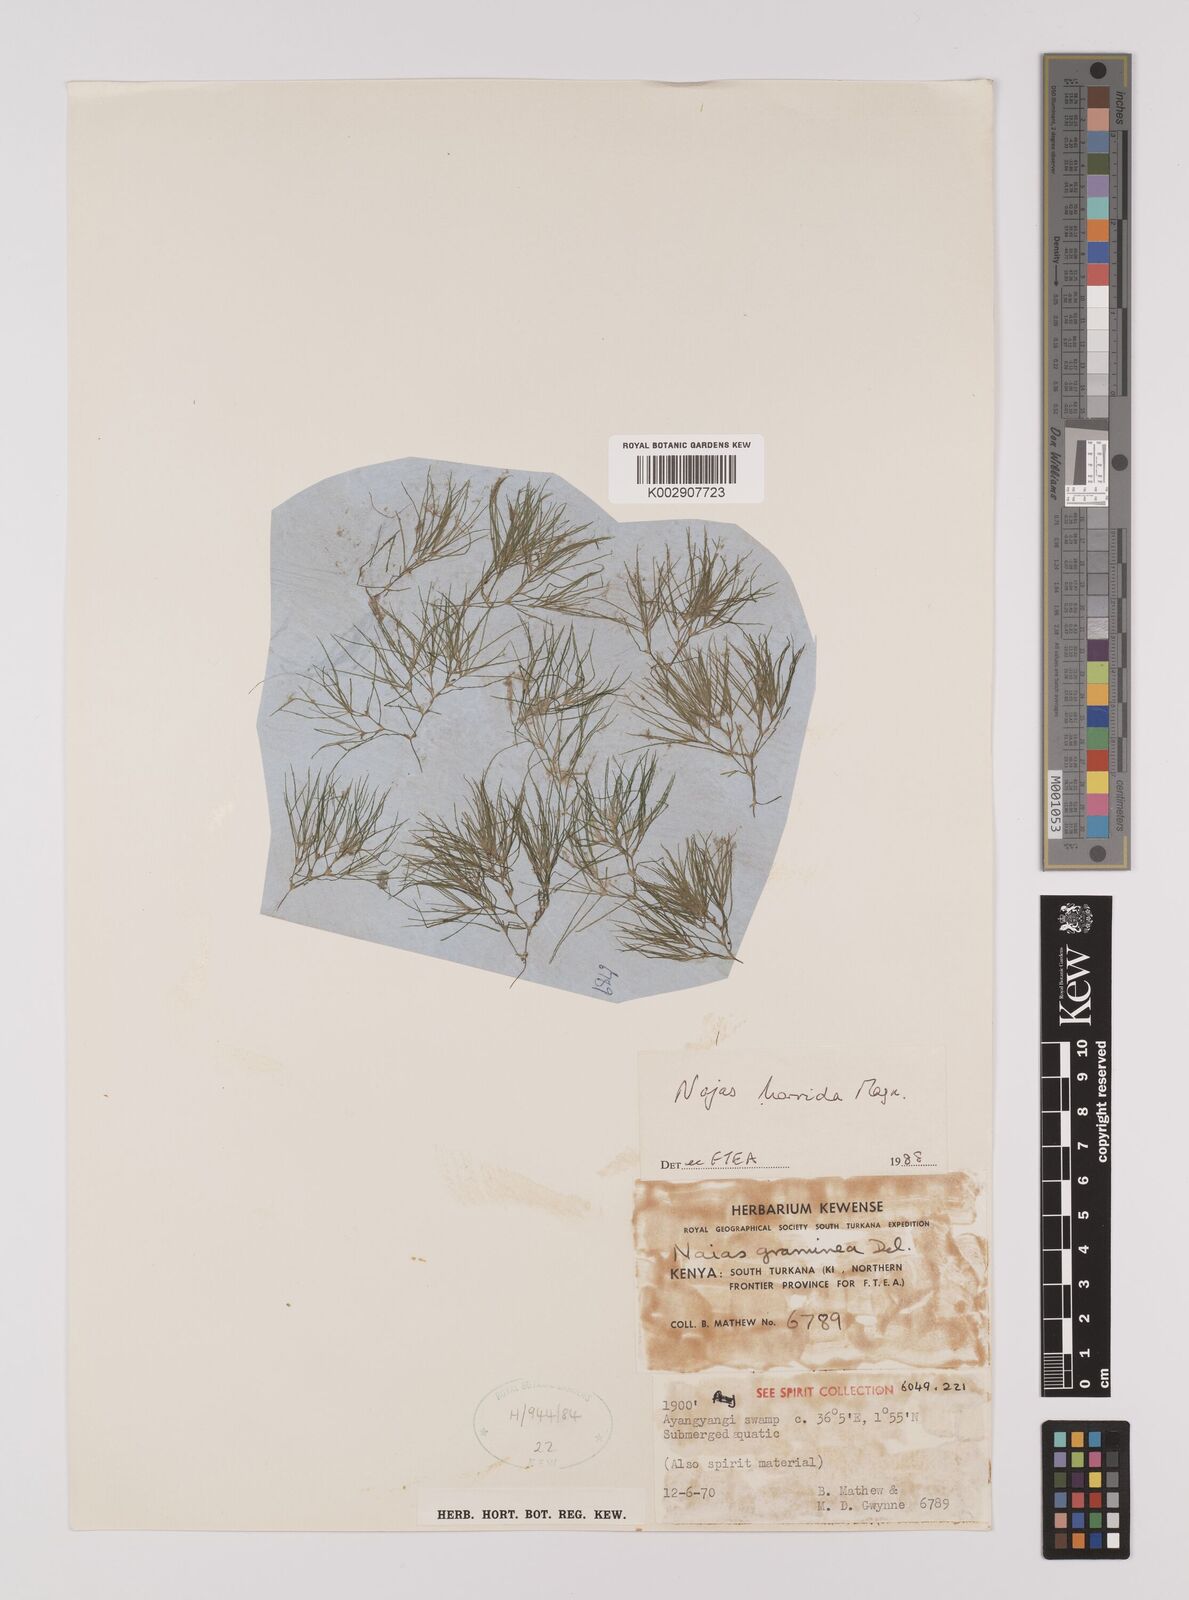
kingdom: Plantae
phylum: Tracheophyta
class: Liliopsida
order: Alismatales
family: Hydrocharitaceae
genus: Najas
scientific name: Najas horrida
